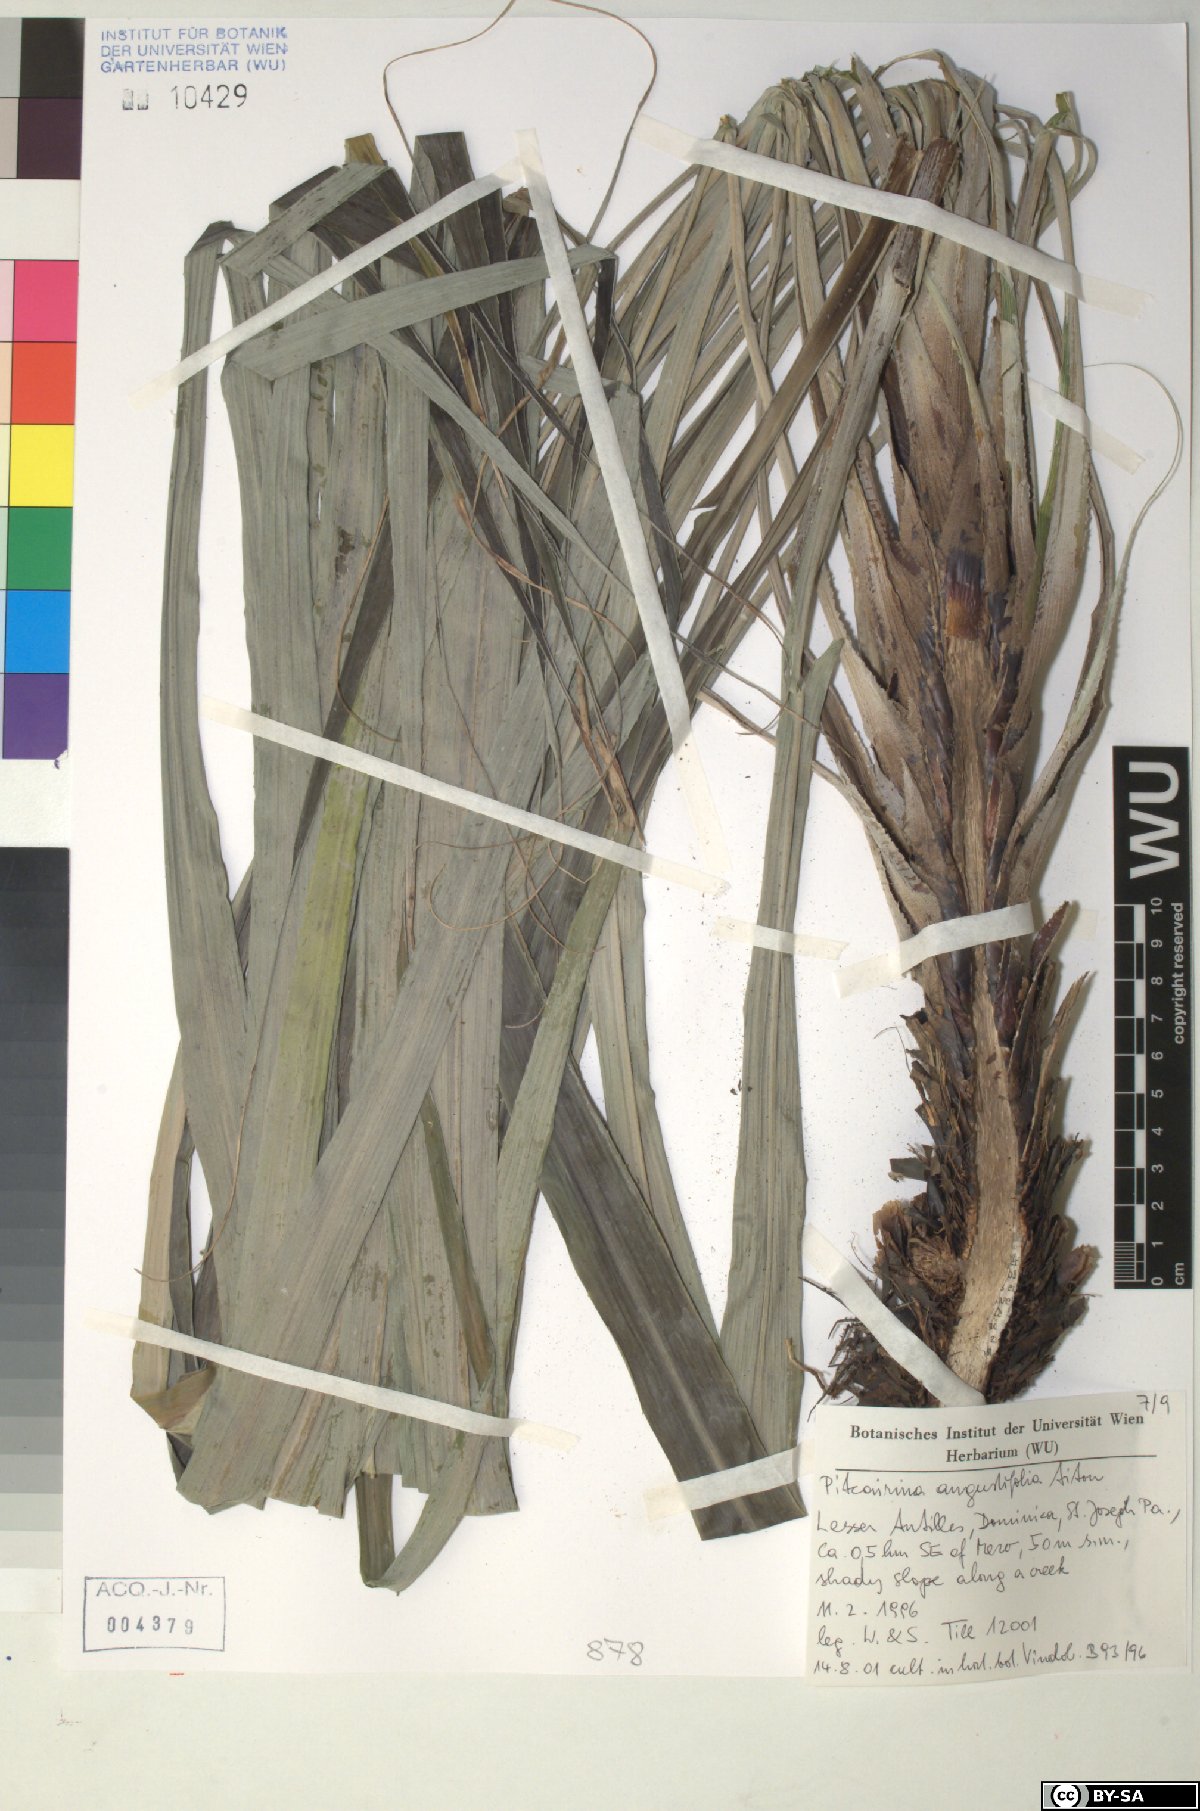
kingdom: Plantae
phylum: Tracheophyta
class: Liliopsida
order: Poales
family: Bromeliaceae
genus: Pitcairnia
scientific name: Pitcairnia angustifolia
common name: Clapper
